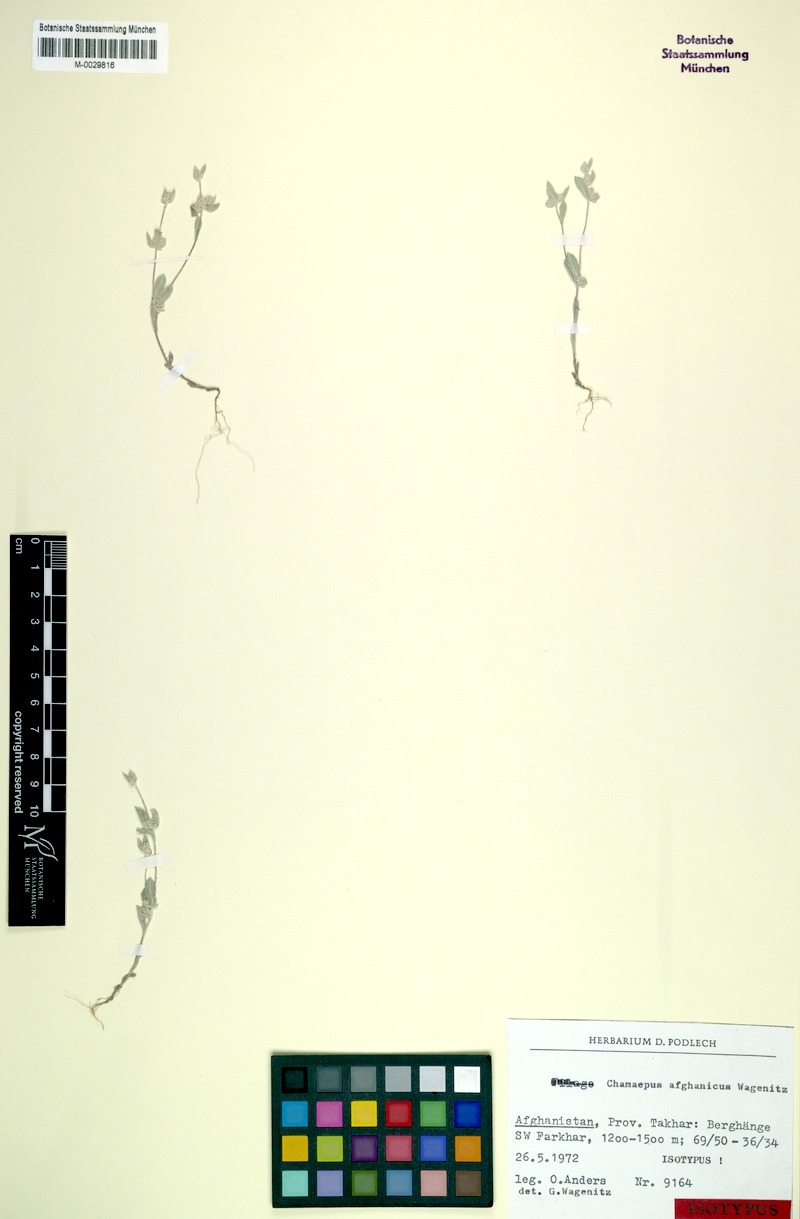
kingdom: Plantae
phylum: Tracheophyta
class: Magnoliopsida
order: Asterales
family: Asteraceae
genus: Chamaepus
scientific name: Chamaepus afghanicus
